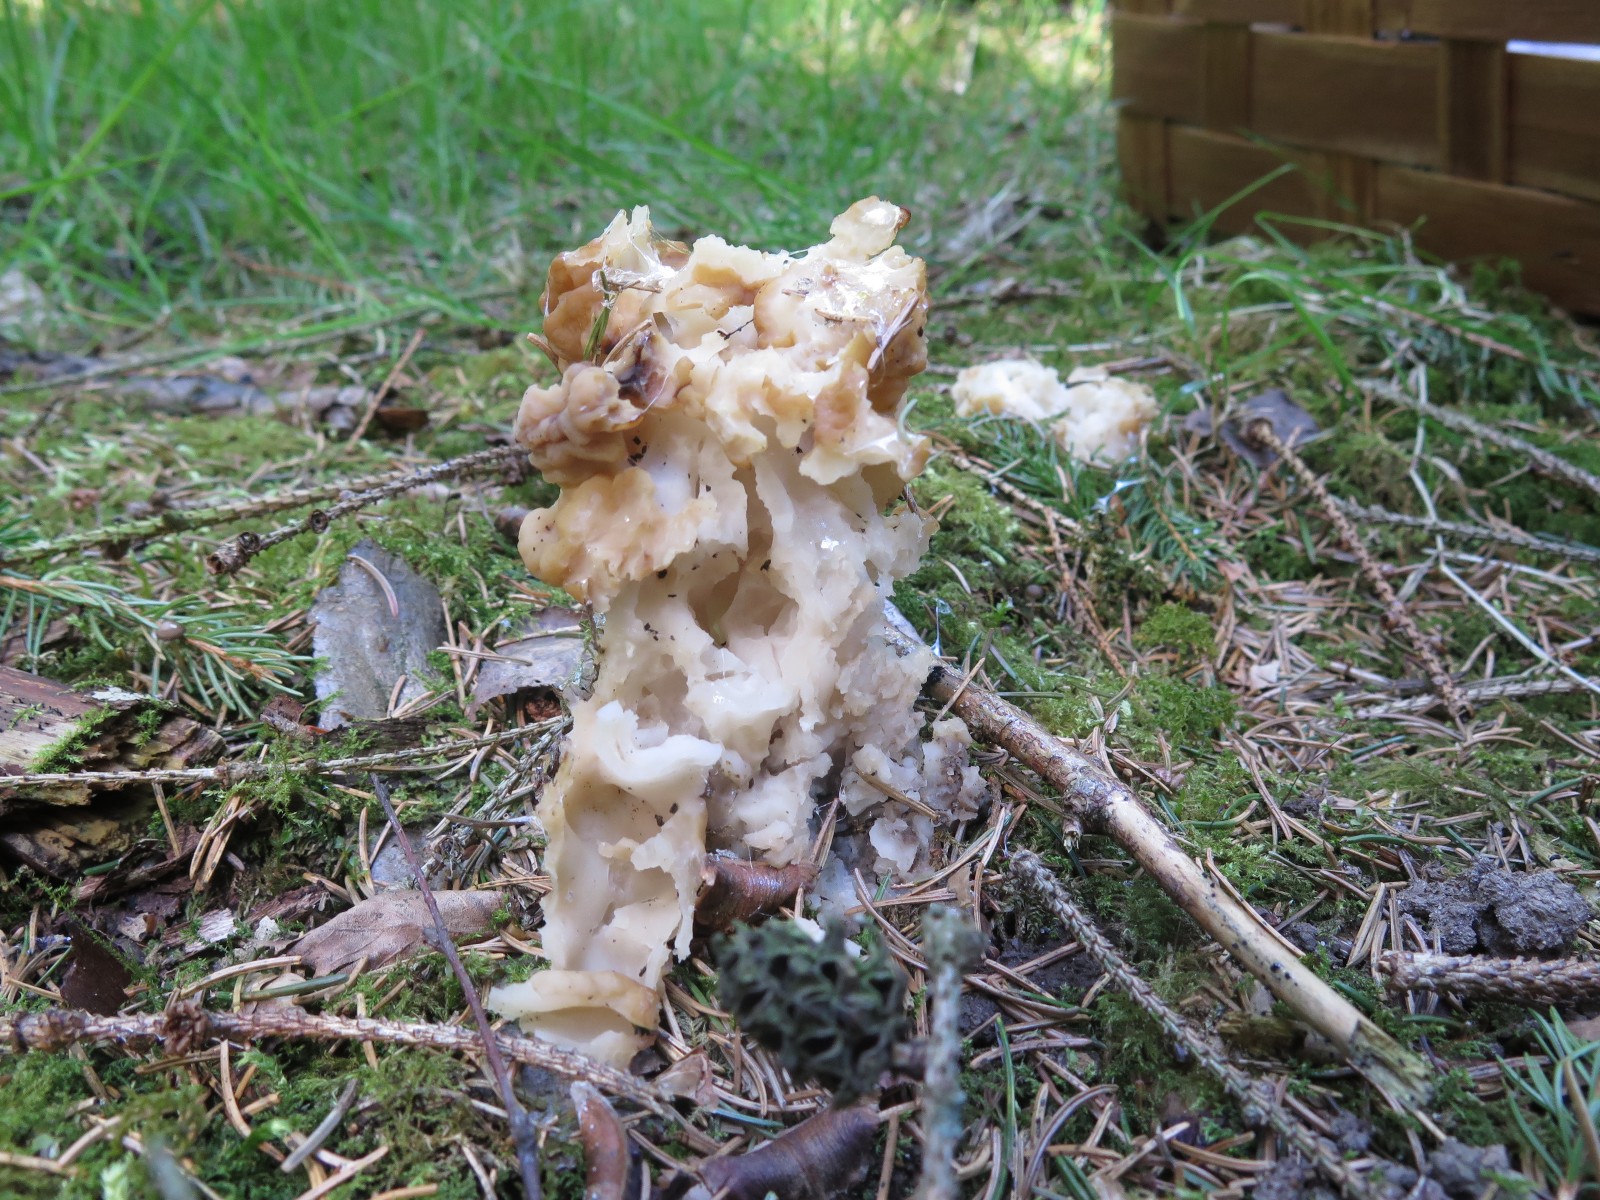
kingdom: Fungi
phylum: Ascomycota
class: Pezizomycetes
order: Pezizales
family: Discinaceae
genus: Gyromitra
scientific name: Gyromitra gigas
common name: kæmpe-stenmorkel
